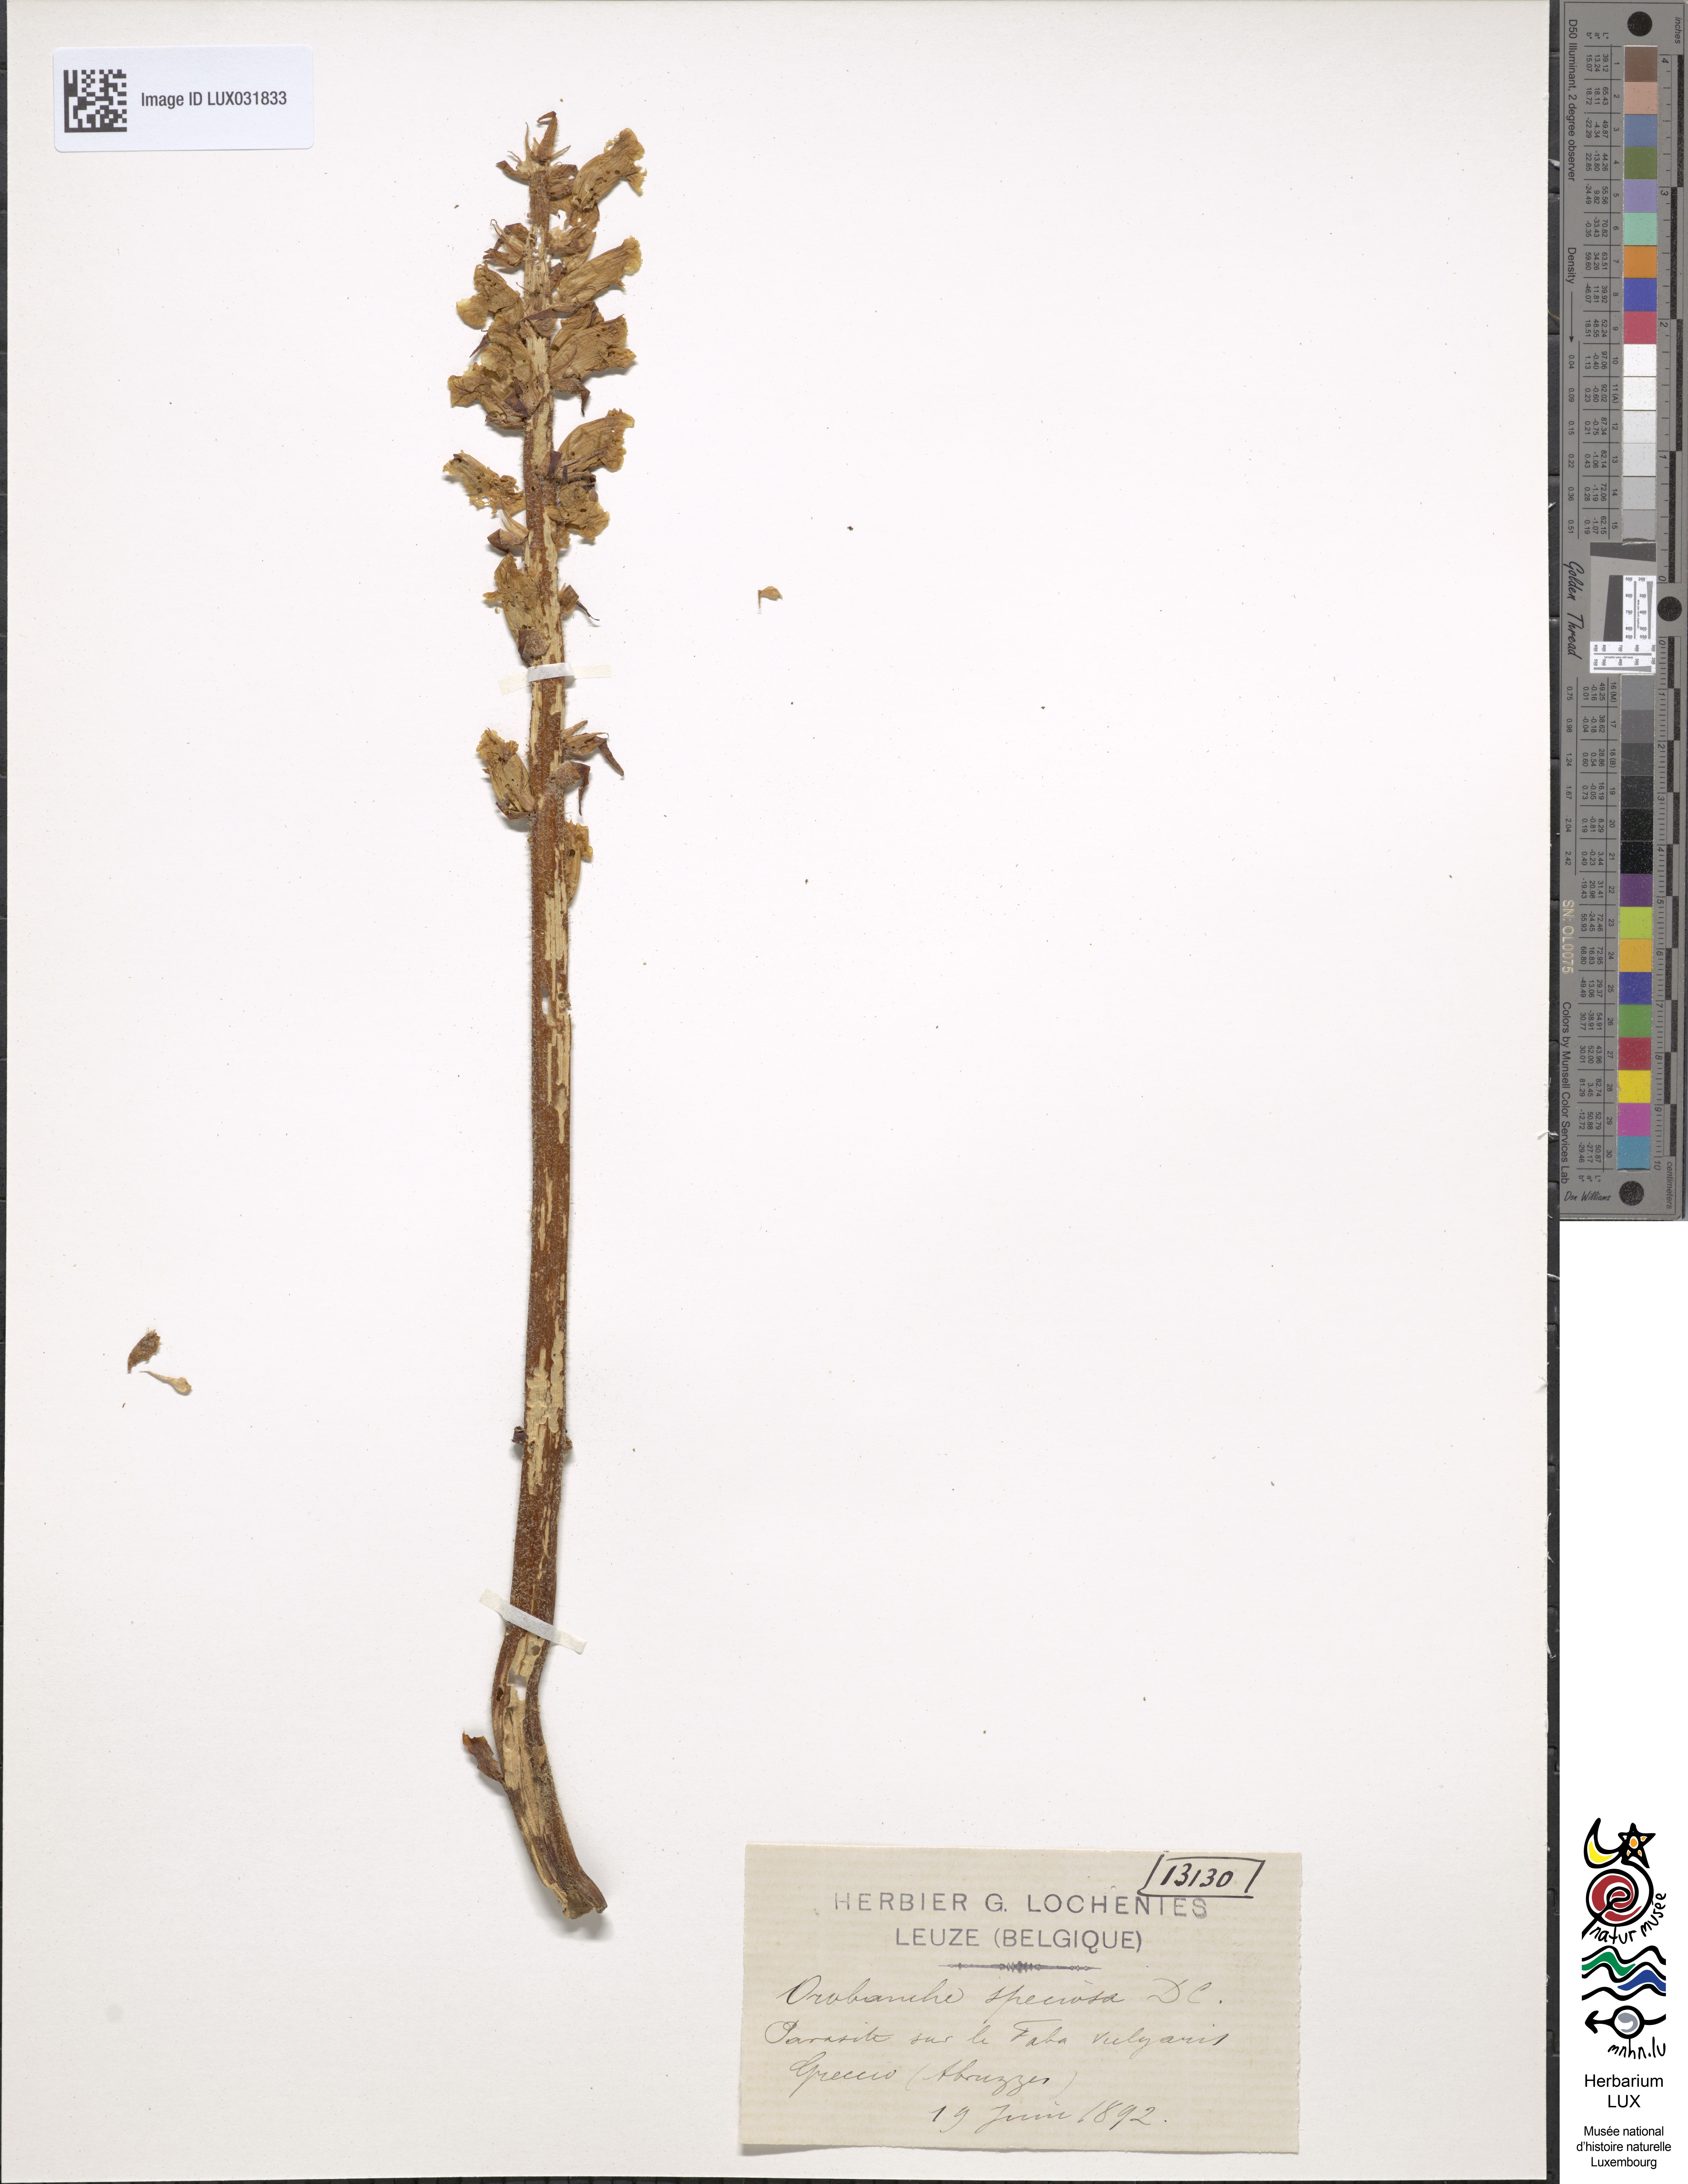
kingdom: Plantae
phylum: Tracheophyta
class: Magnoliopsida
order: Lamiales
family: Orobanchaceae
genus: Orobanche
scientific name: Orobanche crenata
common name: Bean broomrape
